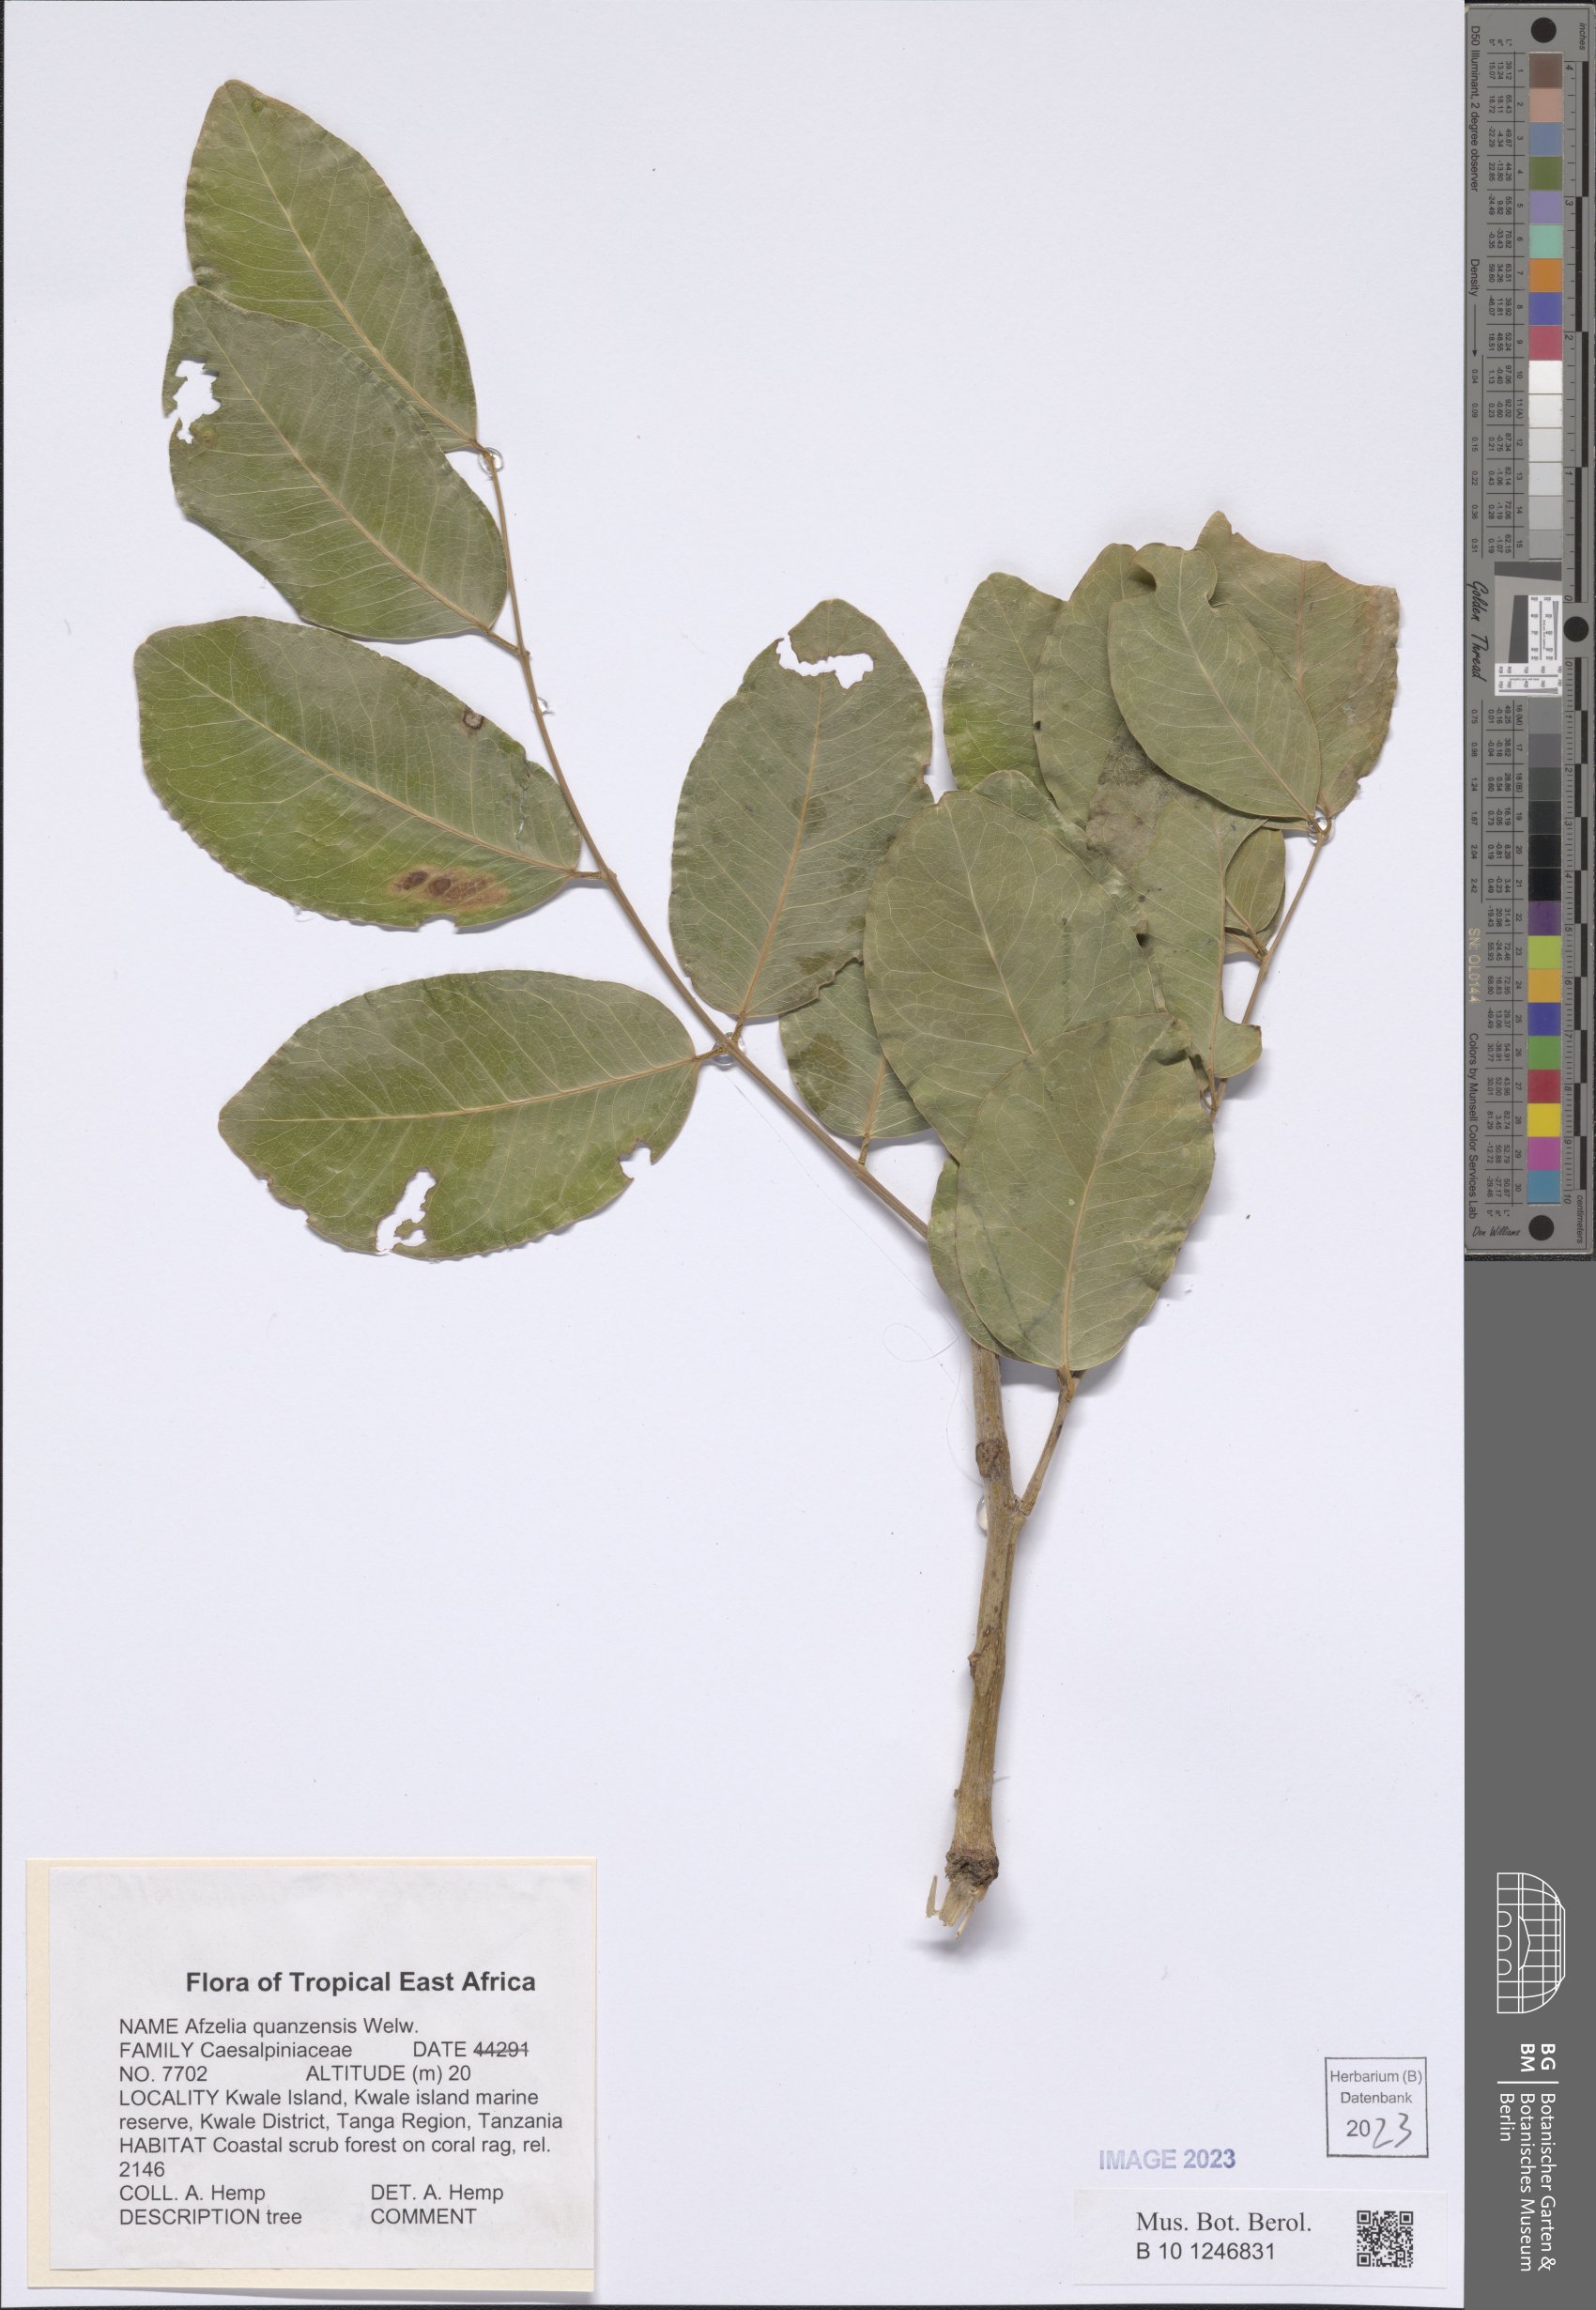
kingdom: Plantae
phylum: Tracheophyta
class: Magnoliopsida
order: Fabales
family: Fabaceae
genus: Afzelia
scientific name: Afzelia quanzensis
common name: Pod mahogany
